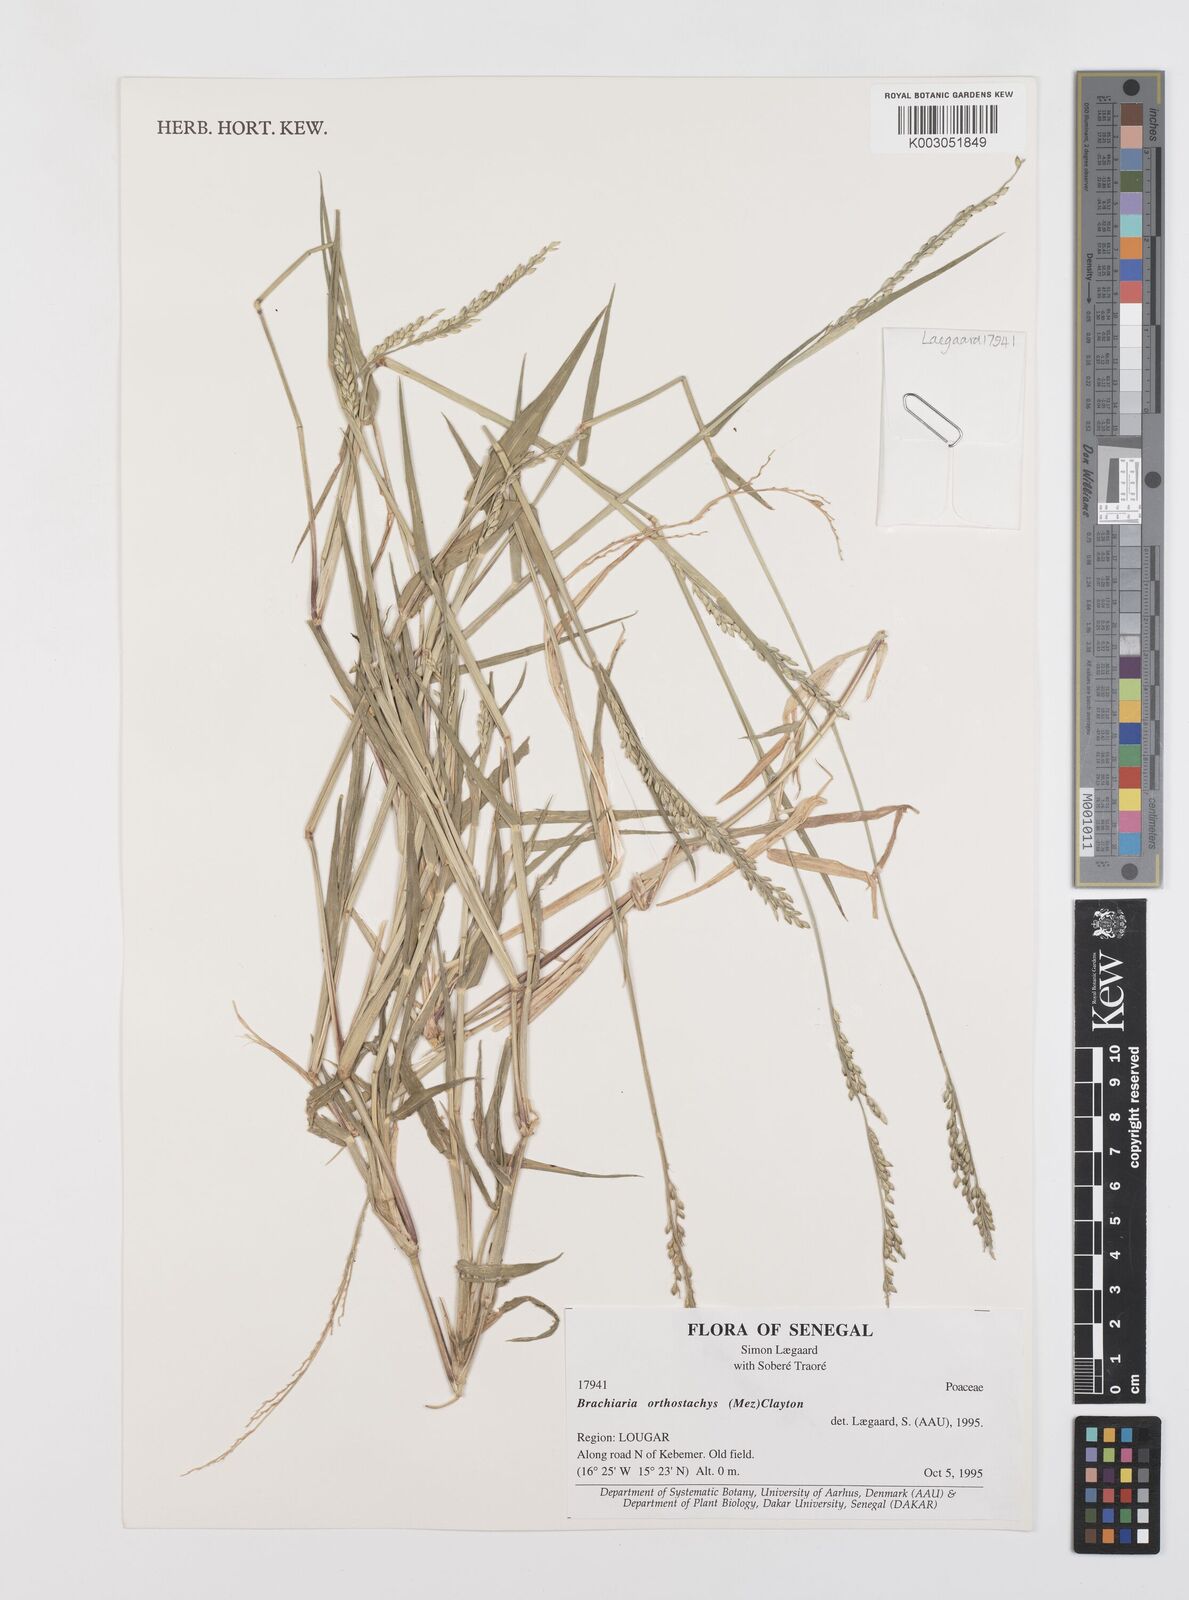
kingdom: Plantae
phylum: Tracheophyta
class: Liliopsida
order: Poales
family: Poaceae
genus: Urochloa
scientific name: Urochloa orthostachys
